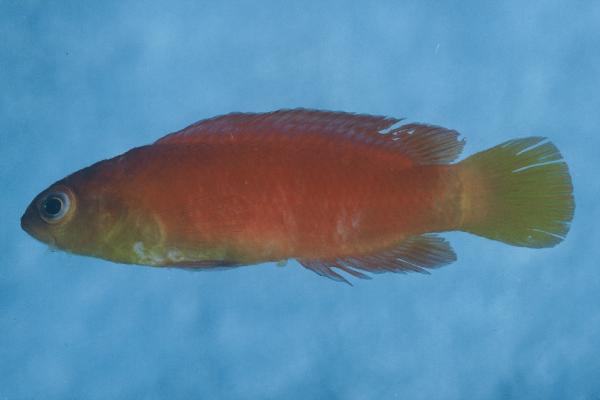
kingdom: Animalia
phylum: Chordata
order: Perciformes
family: Pseudochromidae
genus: Pseudochromis
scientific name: Pseudochromis luteus
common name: Orange dottyback
